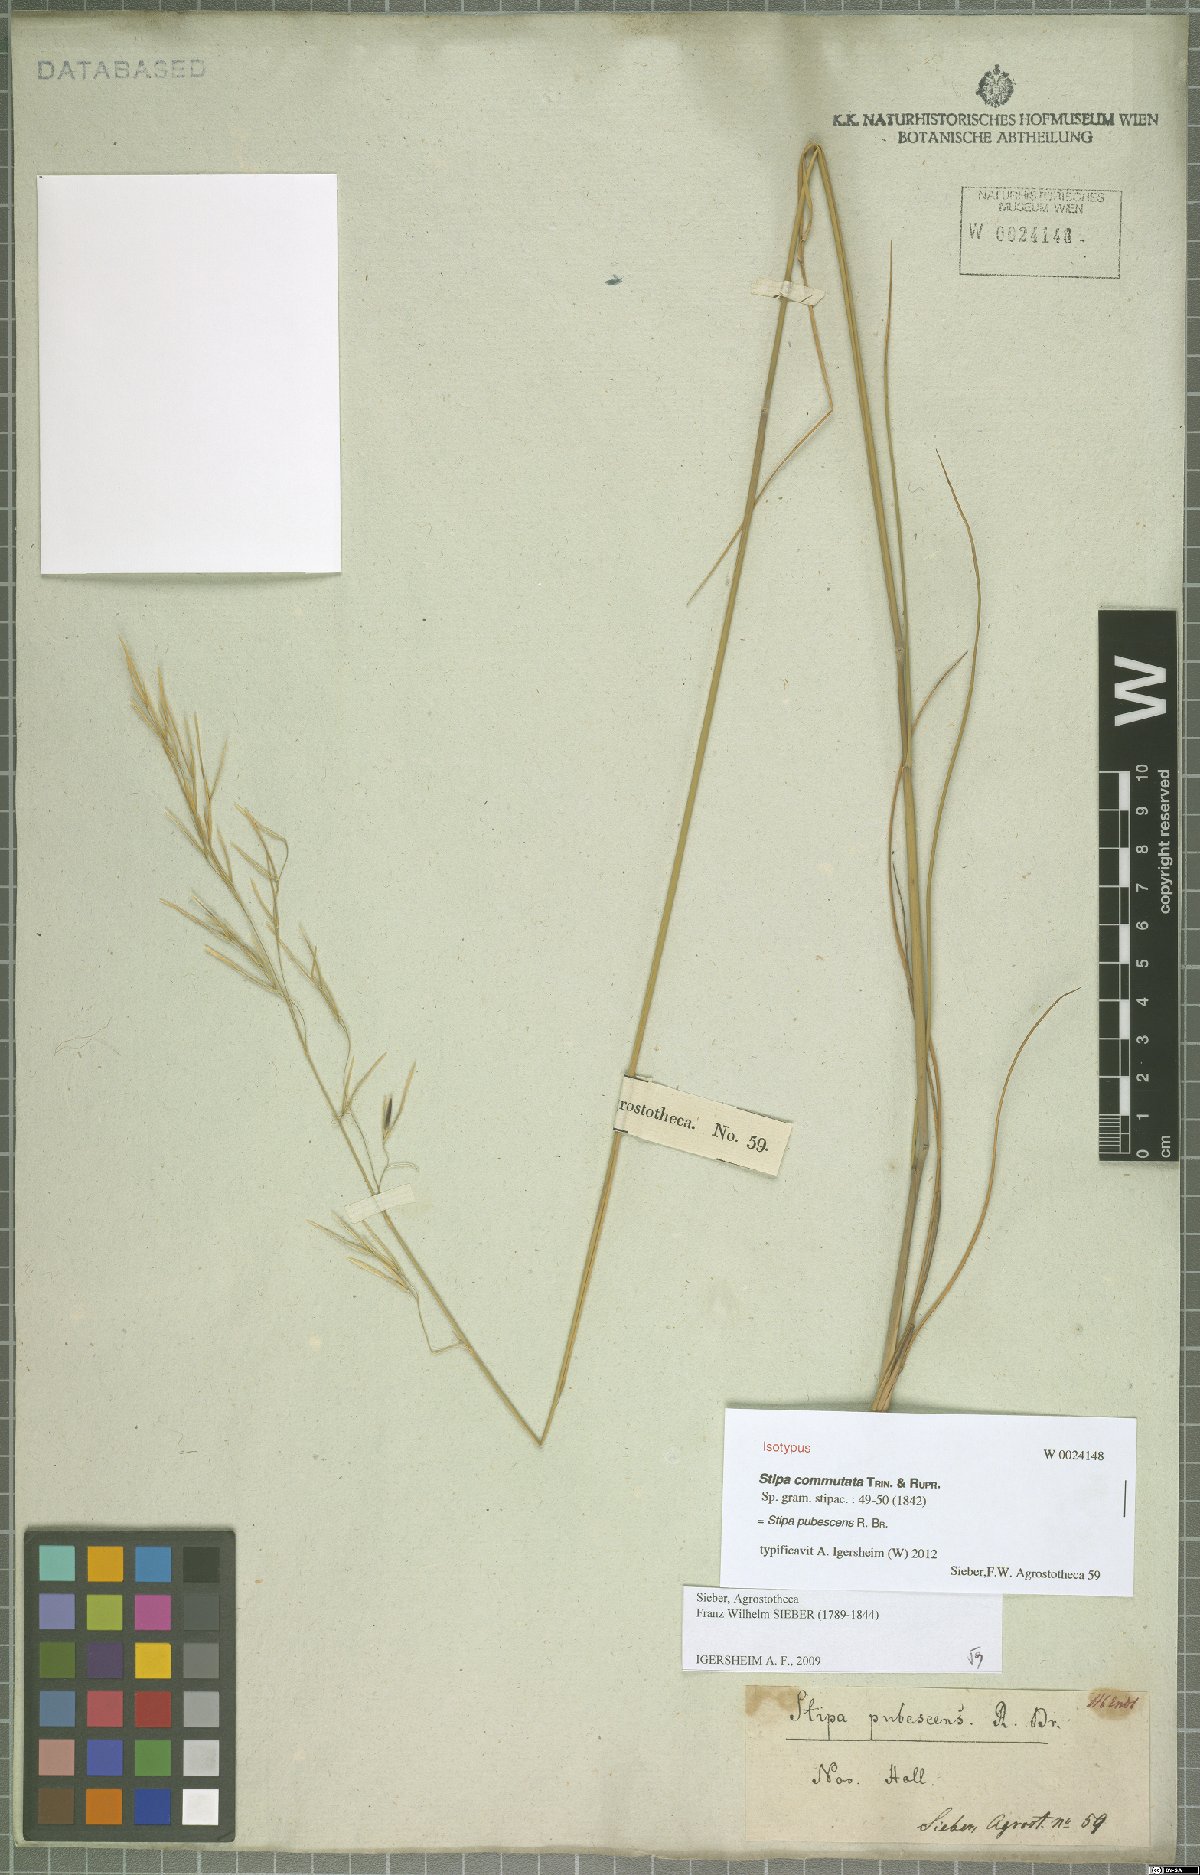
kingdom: Plantae
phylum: Tracheophyta
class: Liliopsida
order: Poales
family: Poaceae
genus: Austrostipa
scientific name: Austrostipa pubescens
